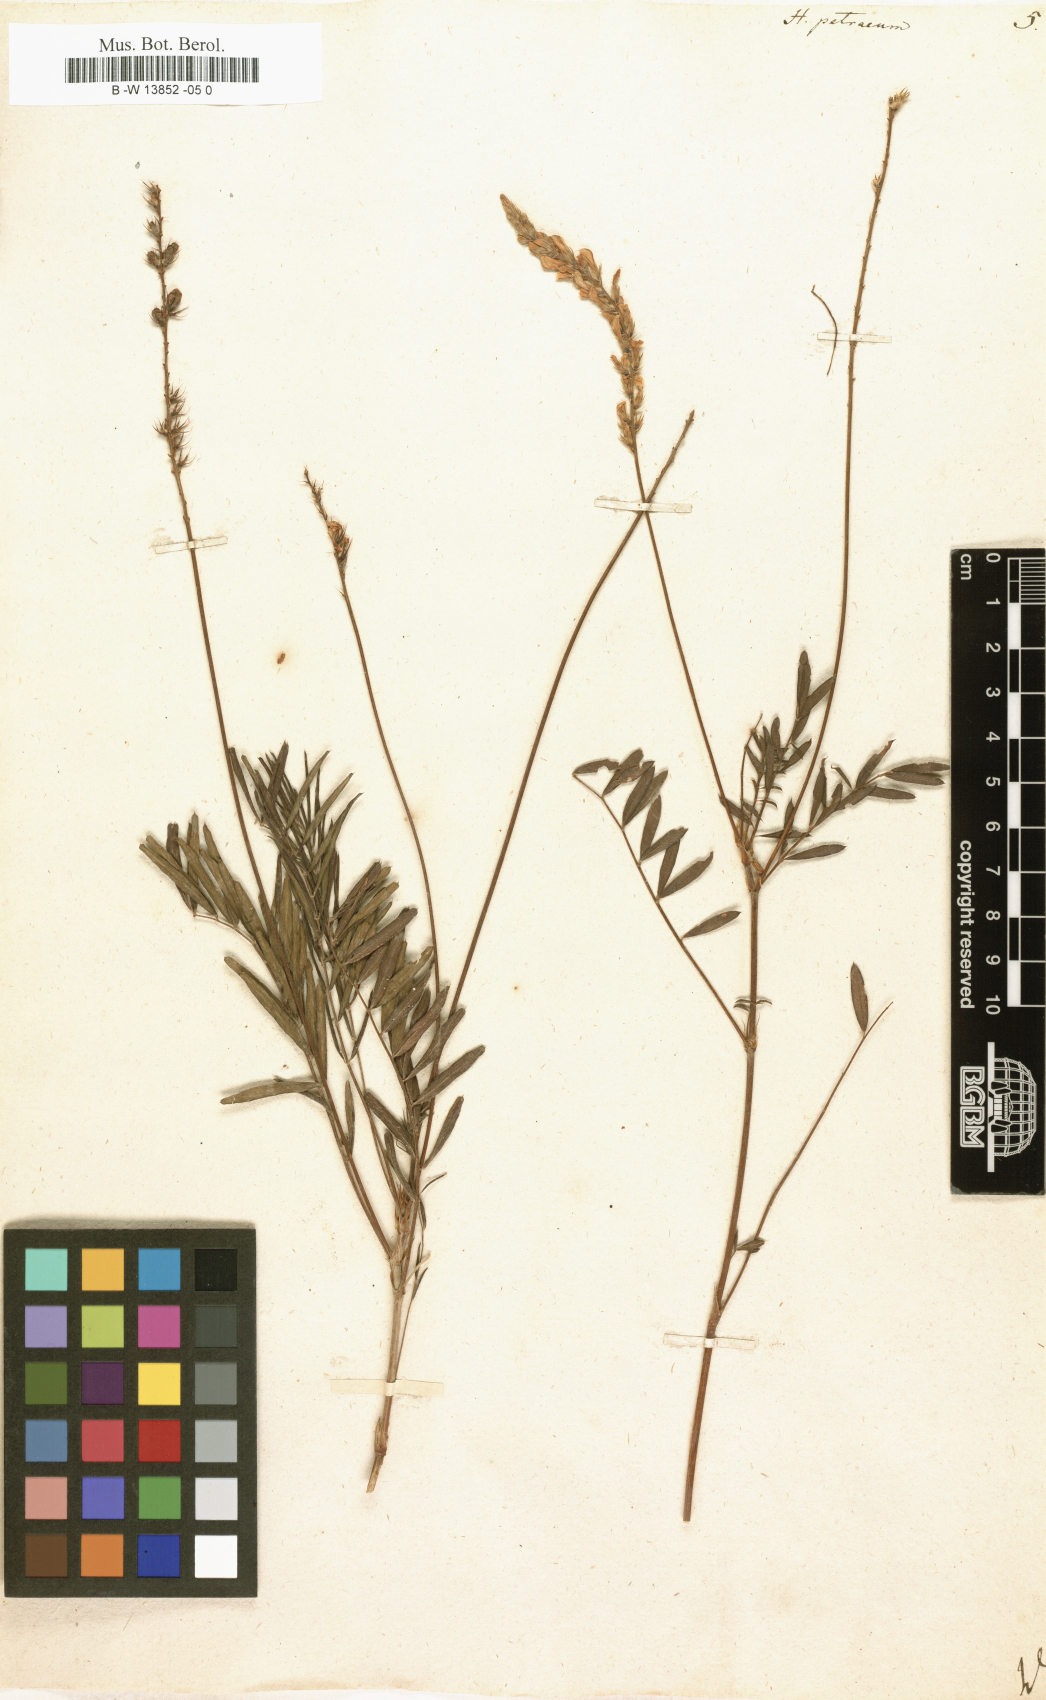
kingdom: Plantae
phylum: Tracheophyta
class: Magnoliopsida
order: Fabales
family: Fabaceae
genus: Onobrychis
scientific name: Onobrychis petraea
